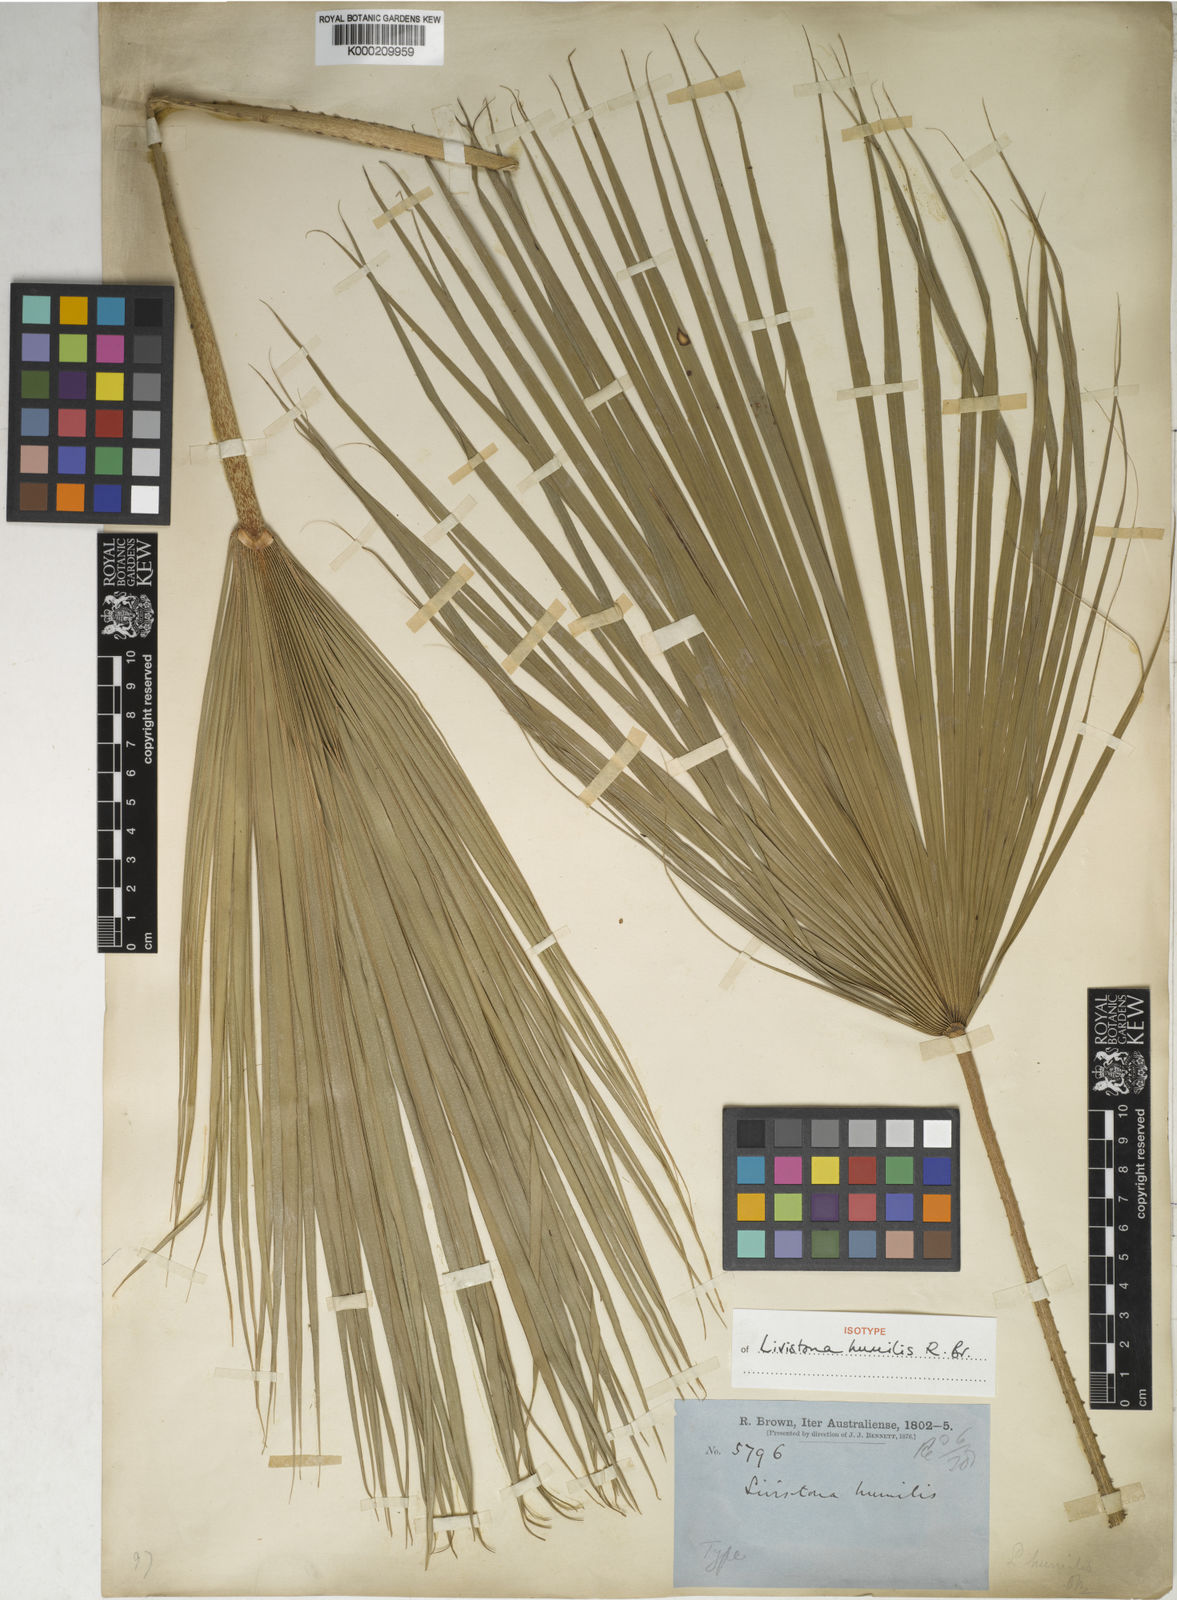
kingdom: Plantae
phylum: Tracheophyta
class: Liliopsida
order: Arecales
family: Arecaceae
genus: Livistona
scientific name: Livistona humilis
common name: Cabbage palm
